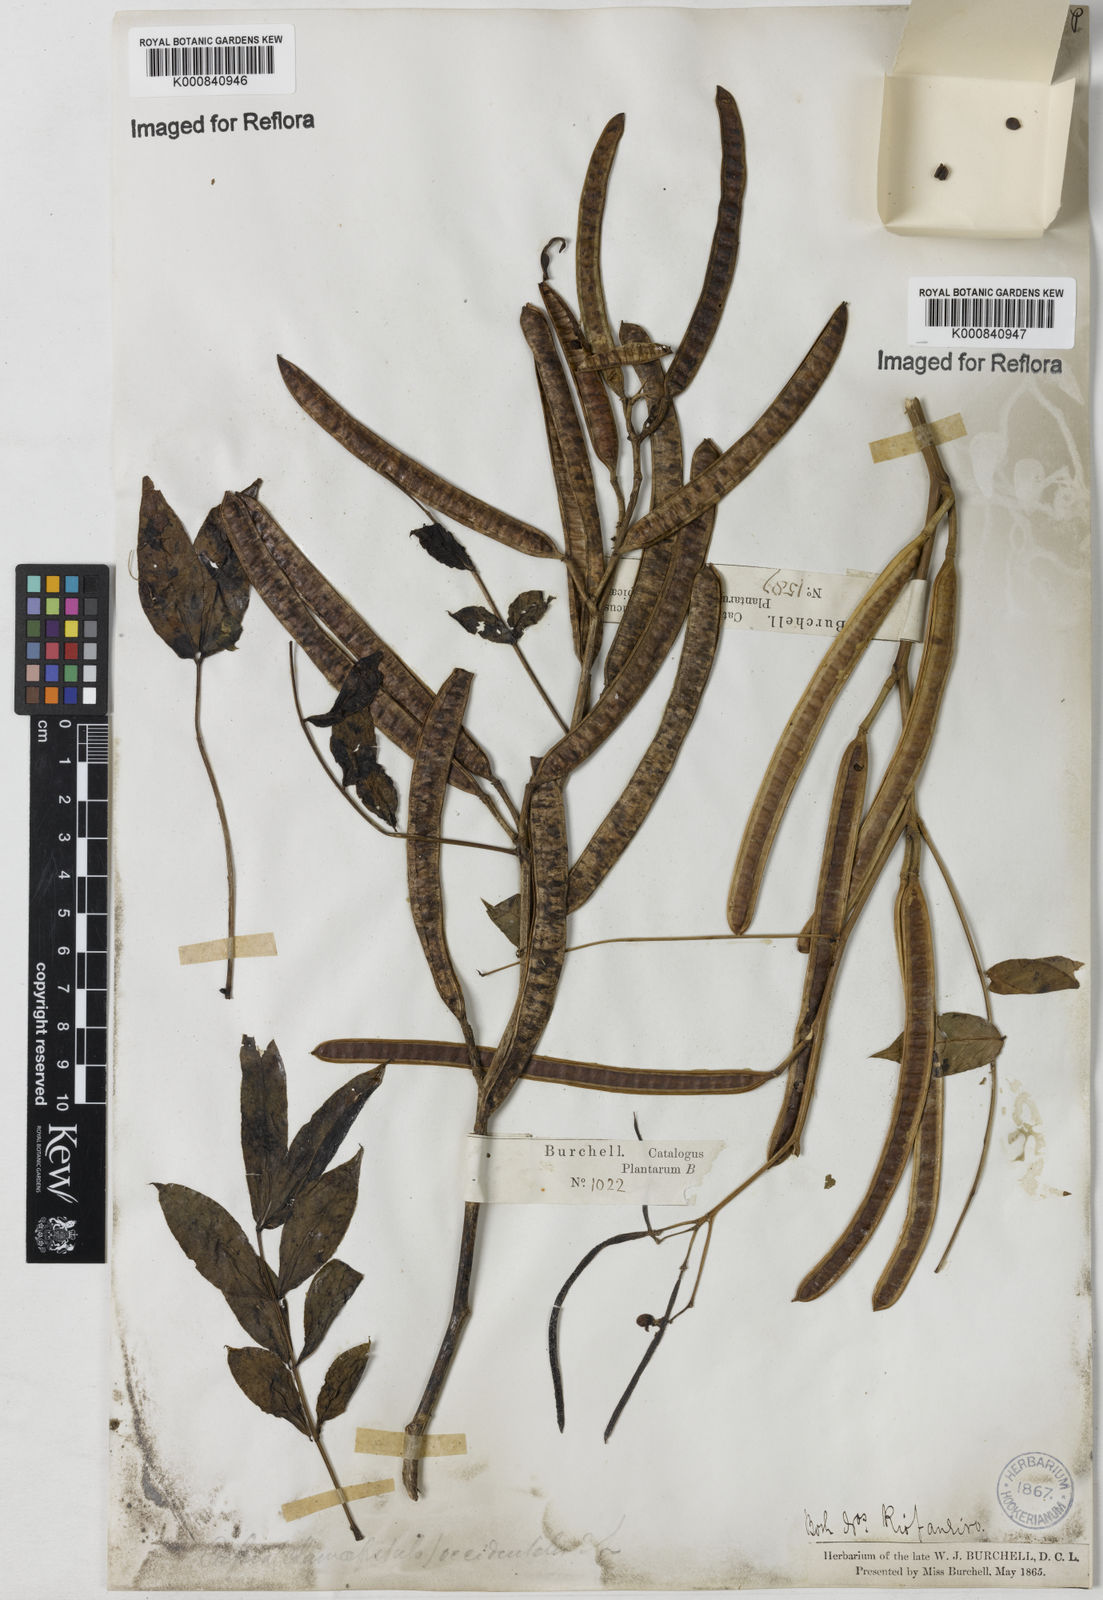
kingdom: Plantae
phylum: Tracheophyta
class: Magnoliopsida
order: Fabales
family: Fabaceae
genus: Senna
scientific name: Senna occidentalis
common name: Septicweed
